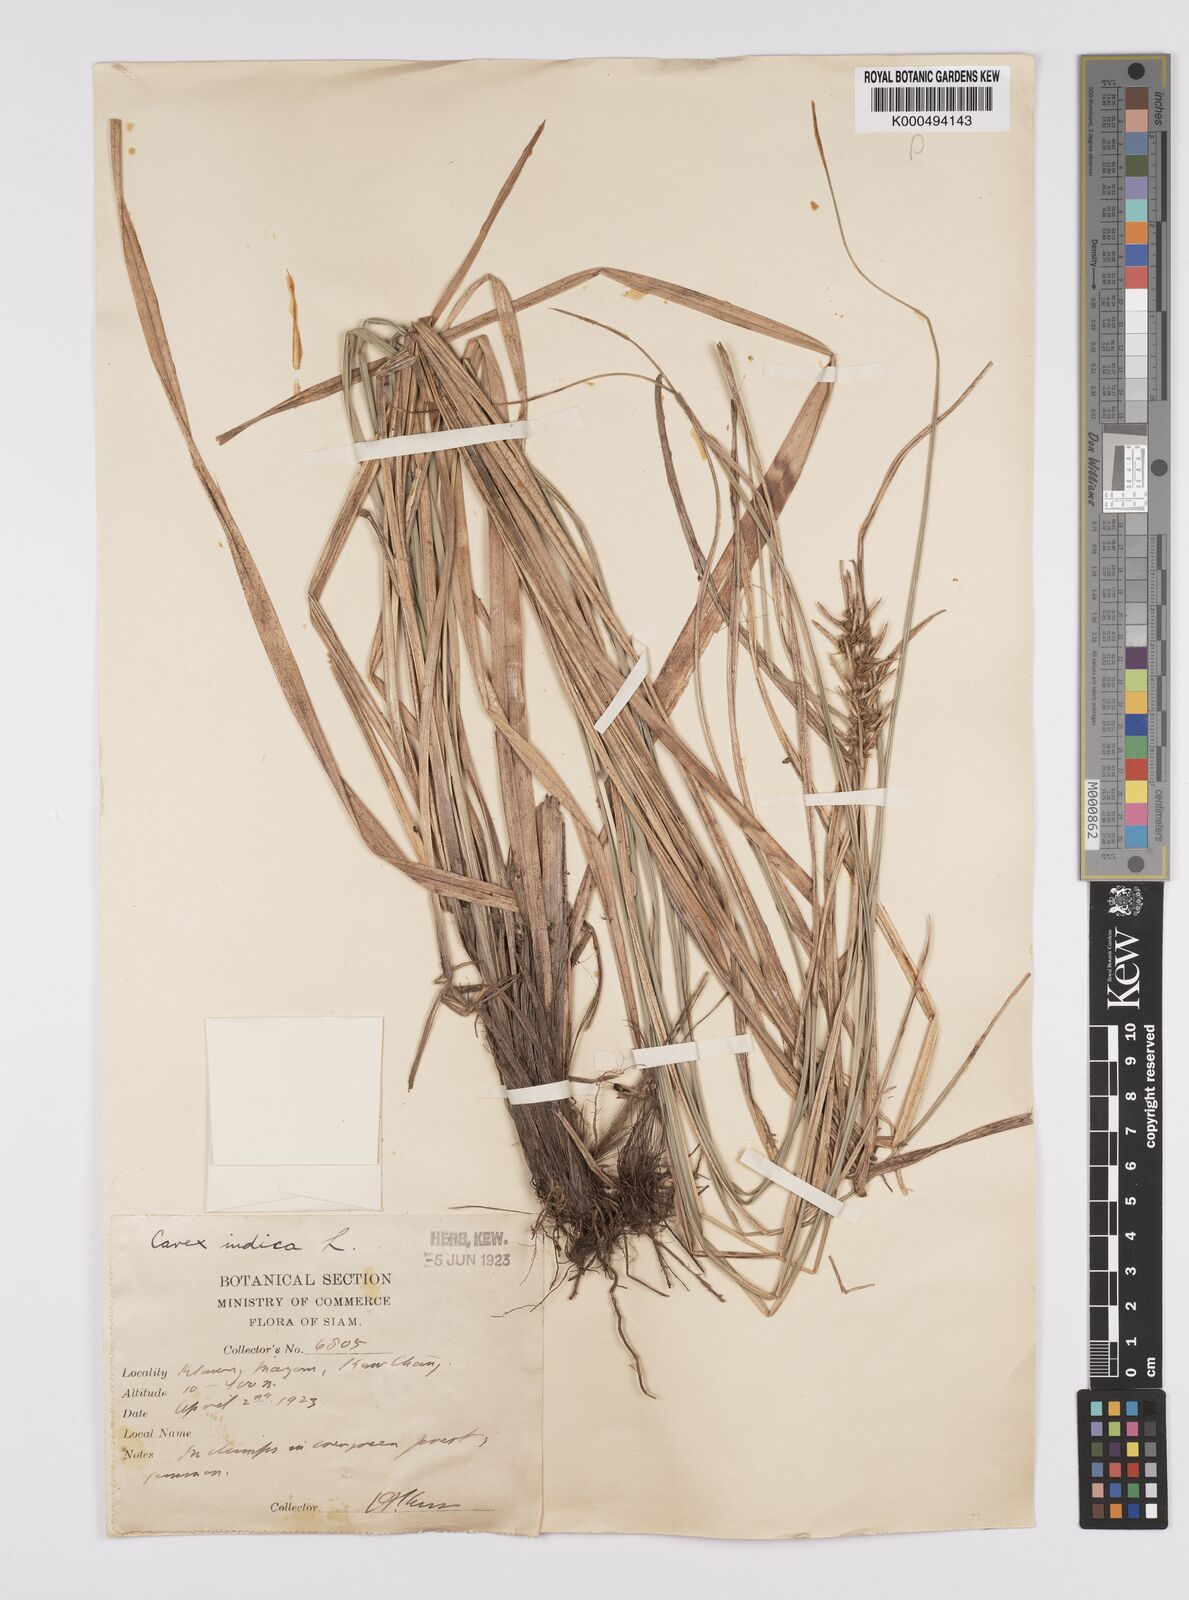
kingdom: Plantae
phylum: Tracheophyta
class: Liliopsida
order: Poales
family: Cyperaceae
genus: Carex
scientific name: Carex indica
